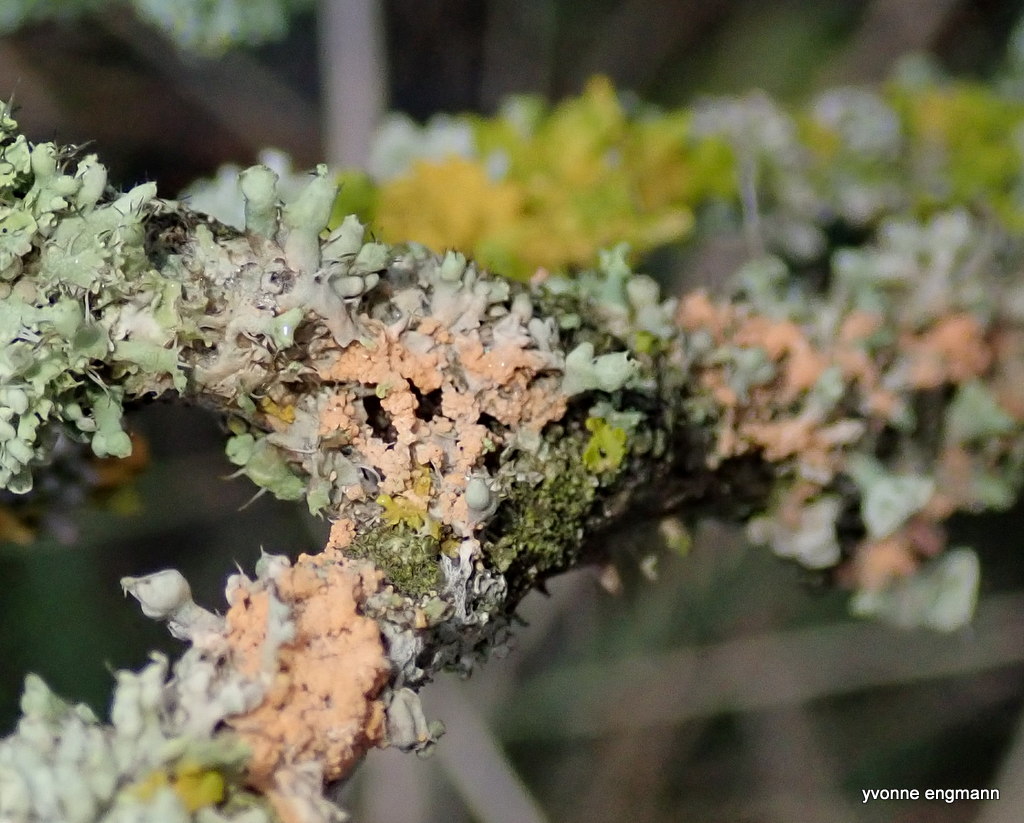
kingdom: Fungi
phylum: Basidiomycota
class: Agaricomycetes
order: Corticiales
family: Corticiaceae
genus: Erythricium
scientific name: Erythricium aurantiacum
